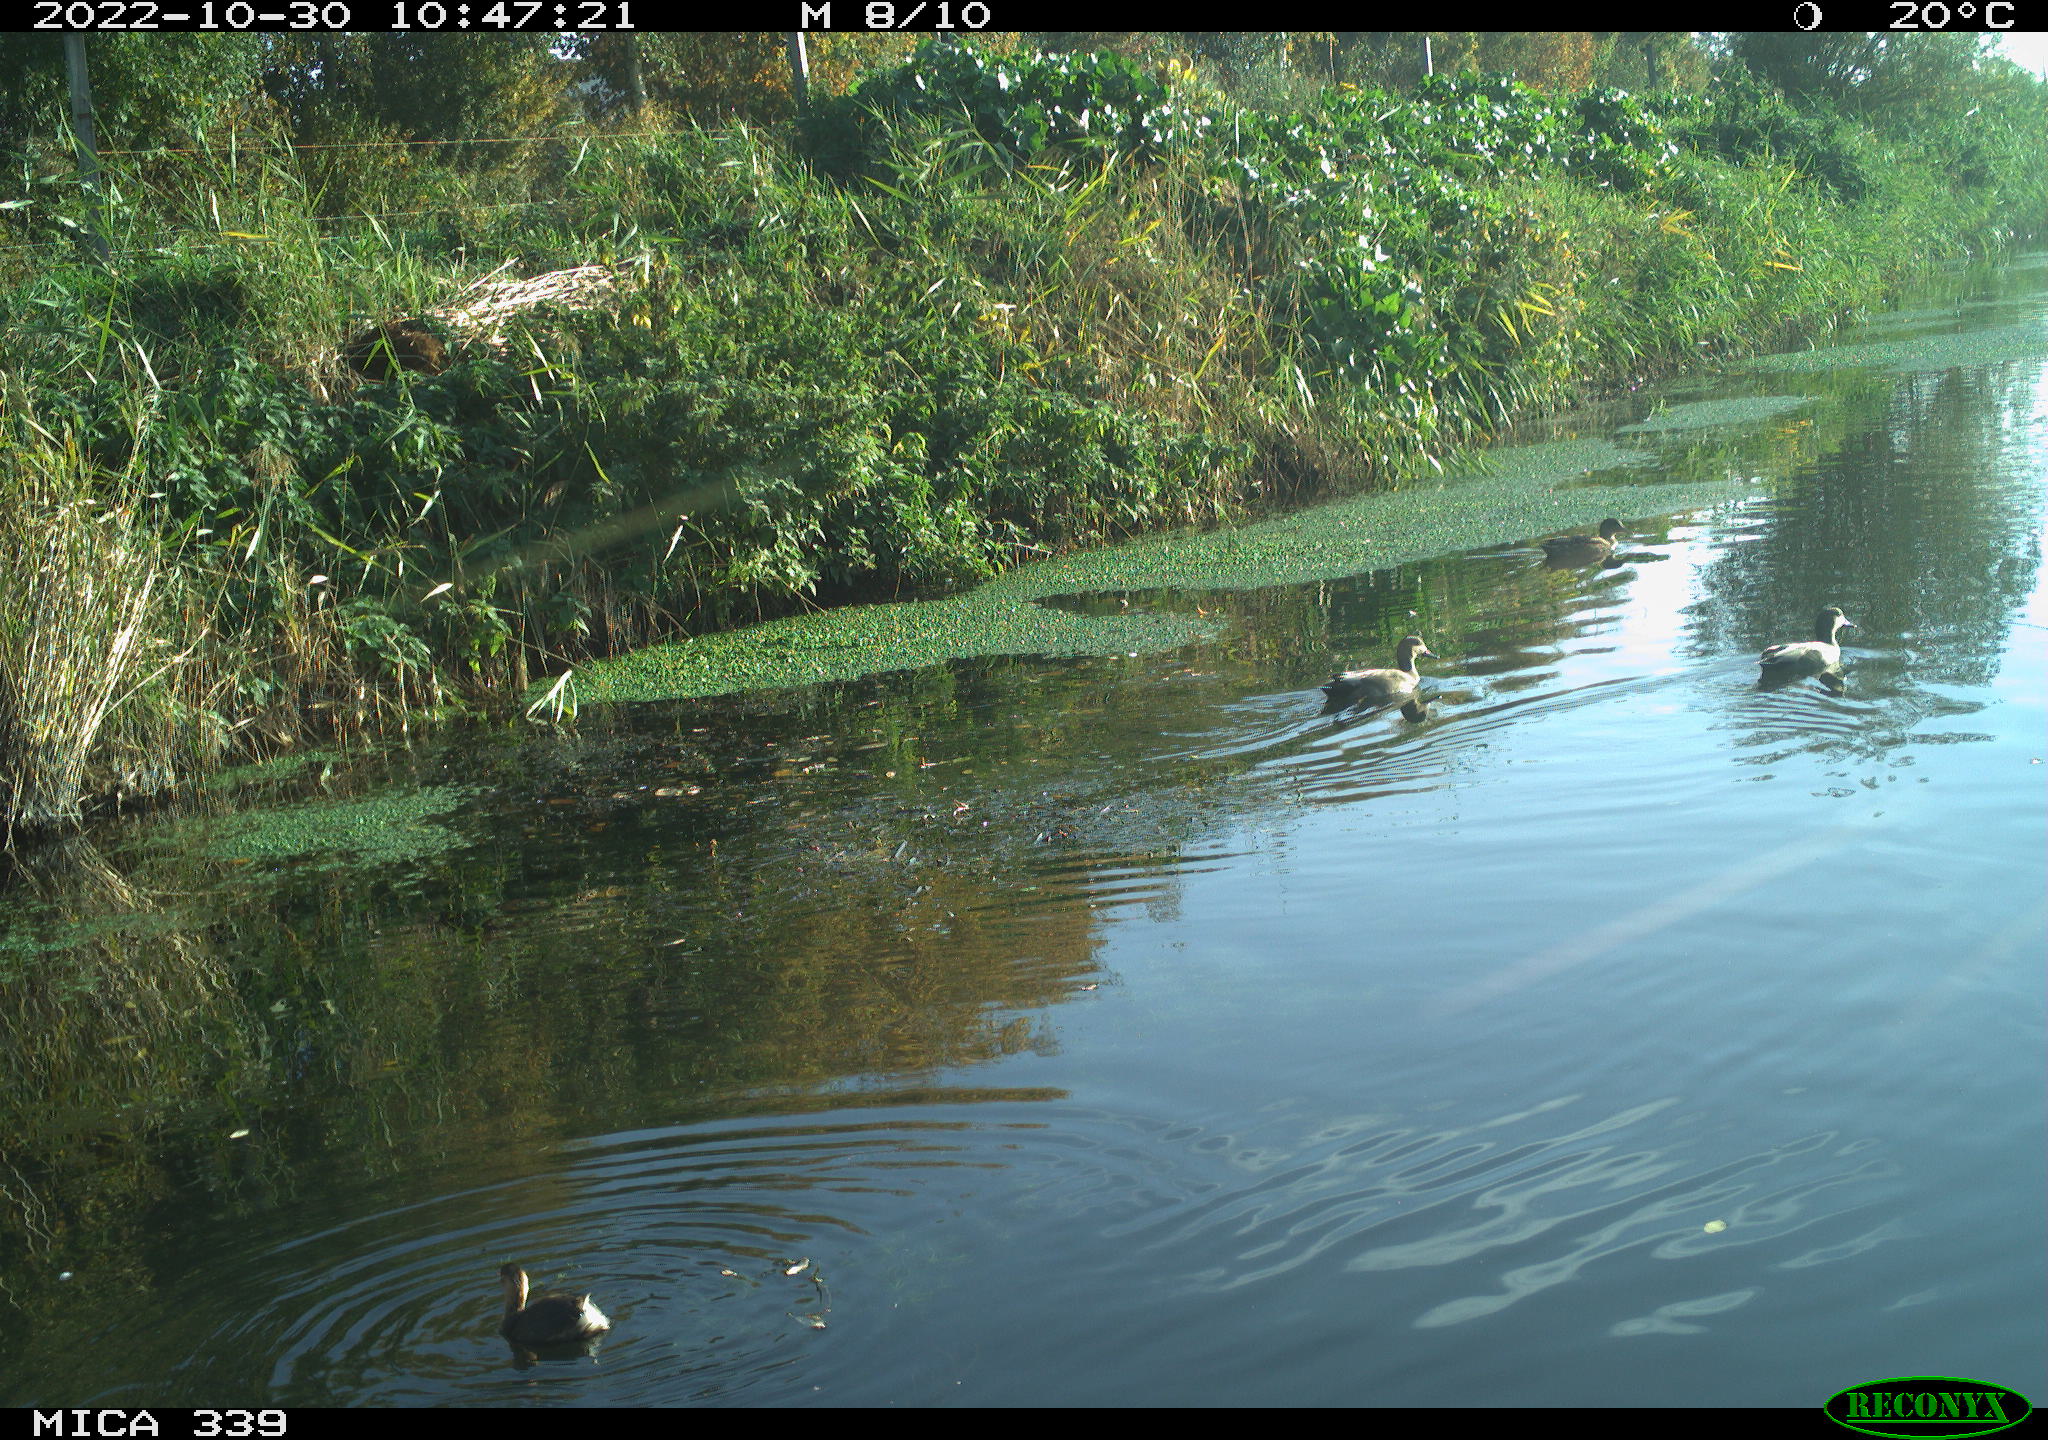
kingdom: Animalia
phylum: Chordata
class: Aves
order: Podicipediformes
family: Podicipedidae
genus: Tachybaptus
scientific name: Tachybaptus ruficollis
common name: Little grebe
